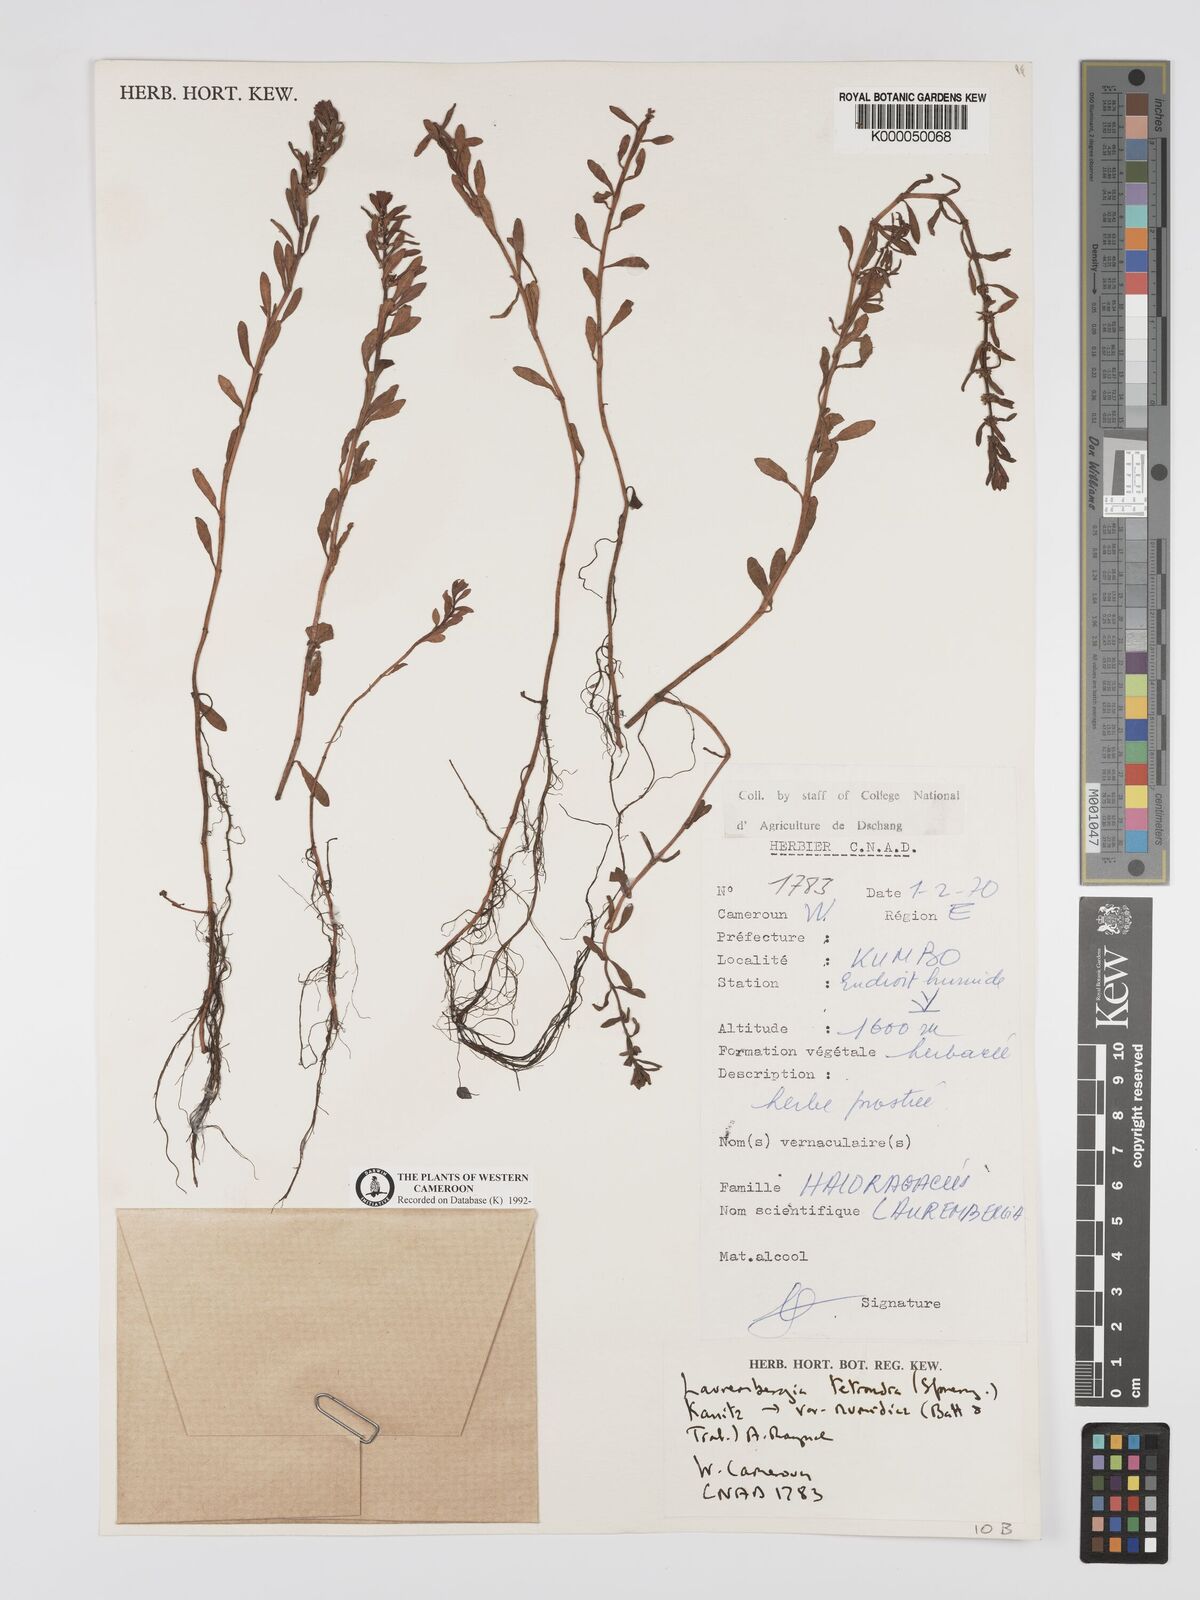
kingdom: Plantae
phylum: Tracheophyta
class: Magnoliopsida
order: Saxifragales
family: Haloragaceae
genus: Laurembergia
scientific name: Laurembergia tetrandra
